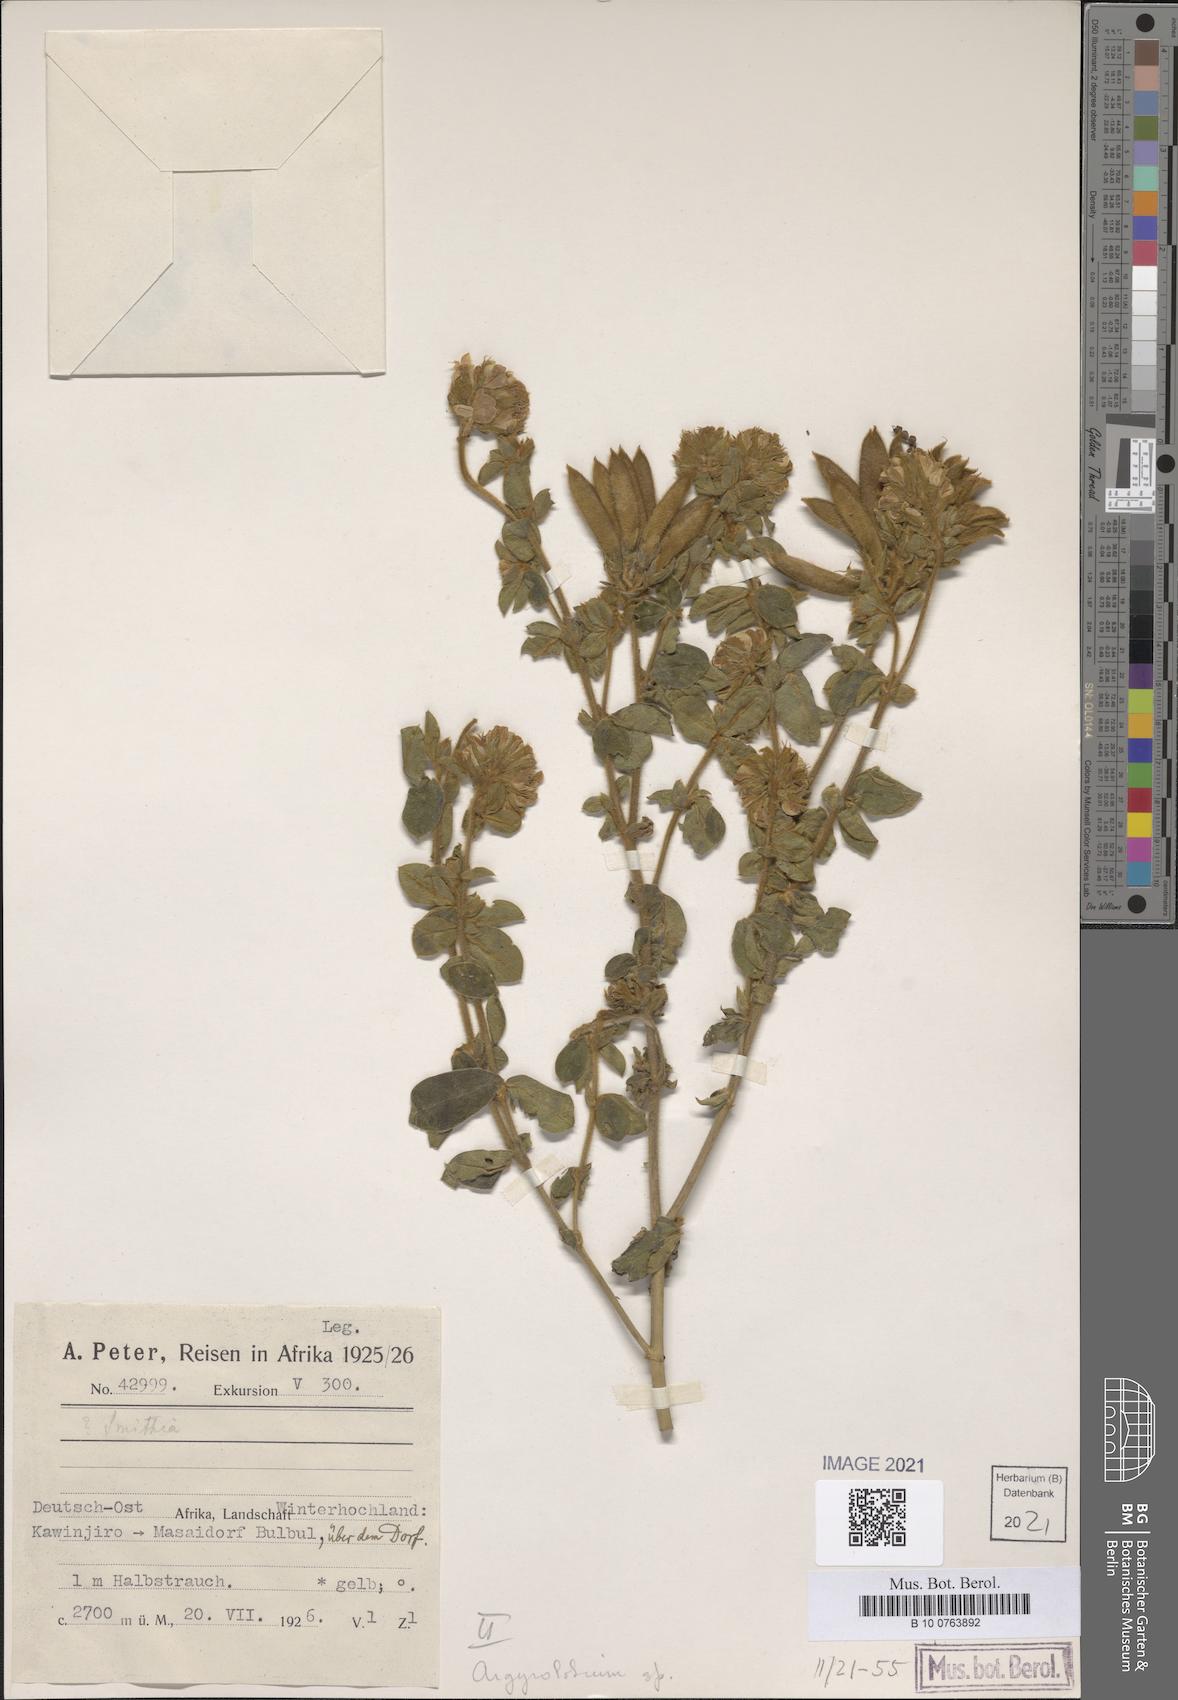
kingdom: Plantae
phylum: Tracheophyta
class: Magnoliopsida
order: Fabales
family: Fabaceae
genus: Argyrolobium
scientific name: Argyrolobium
